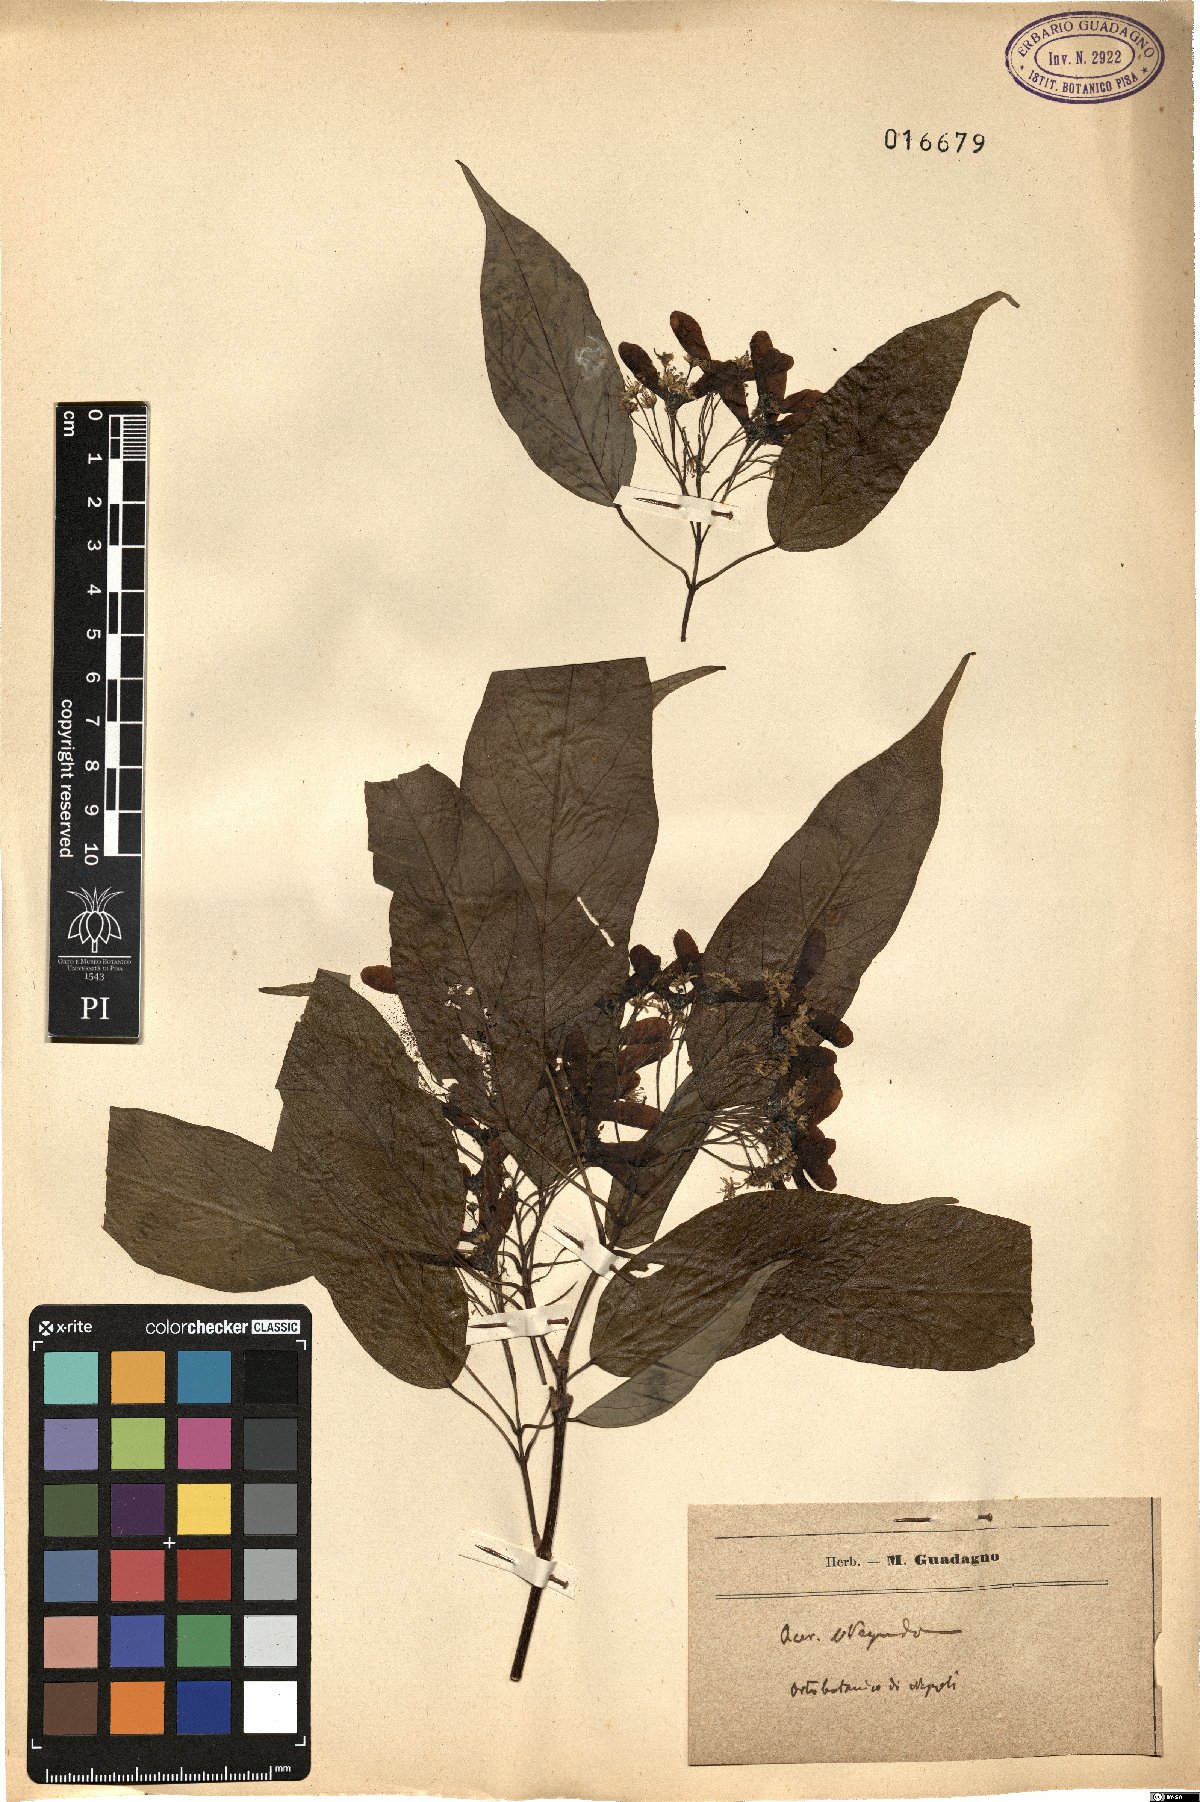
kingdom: Plantae
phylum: Tracheophyta
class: Magnoliopsida
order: Sapindales
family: Sapindaceae
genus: Acer
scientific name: Acer negundo
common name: Ashleaf maple
